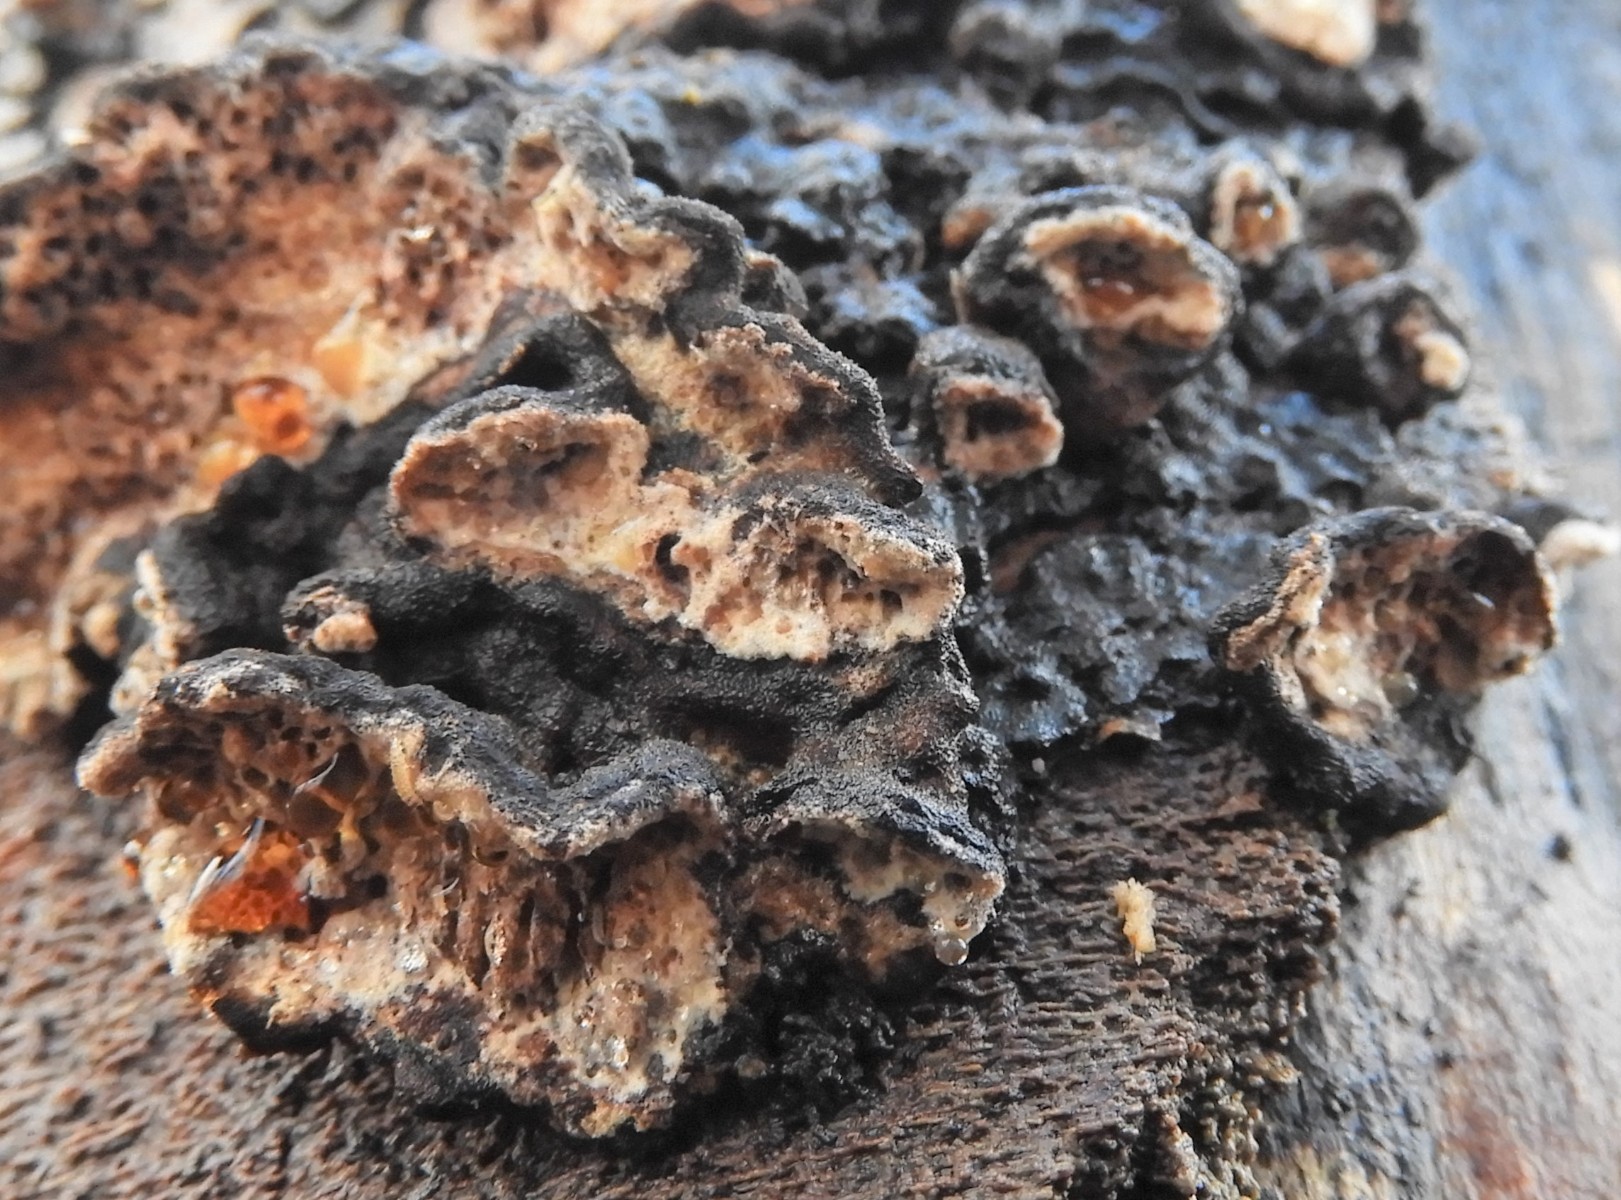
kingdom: Fungi
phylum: Basidiomycota
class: Agaricomycetes
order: Polyporales
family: Polyporaceae
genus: Podofomes
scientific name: Podofomes mollis
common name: blød begporesvamp
